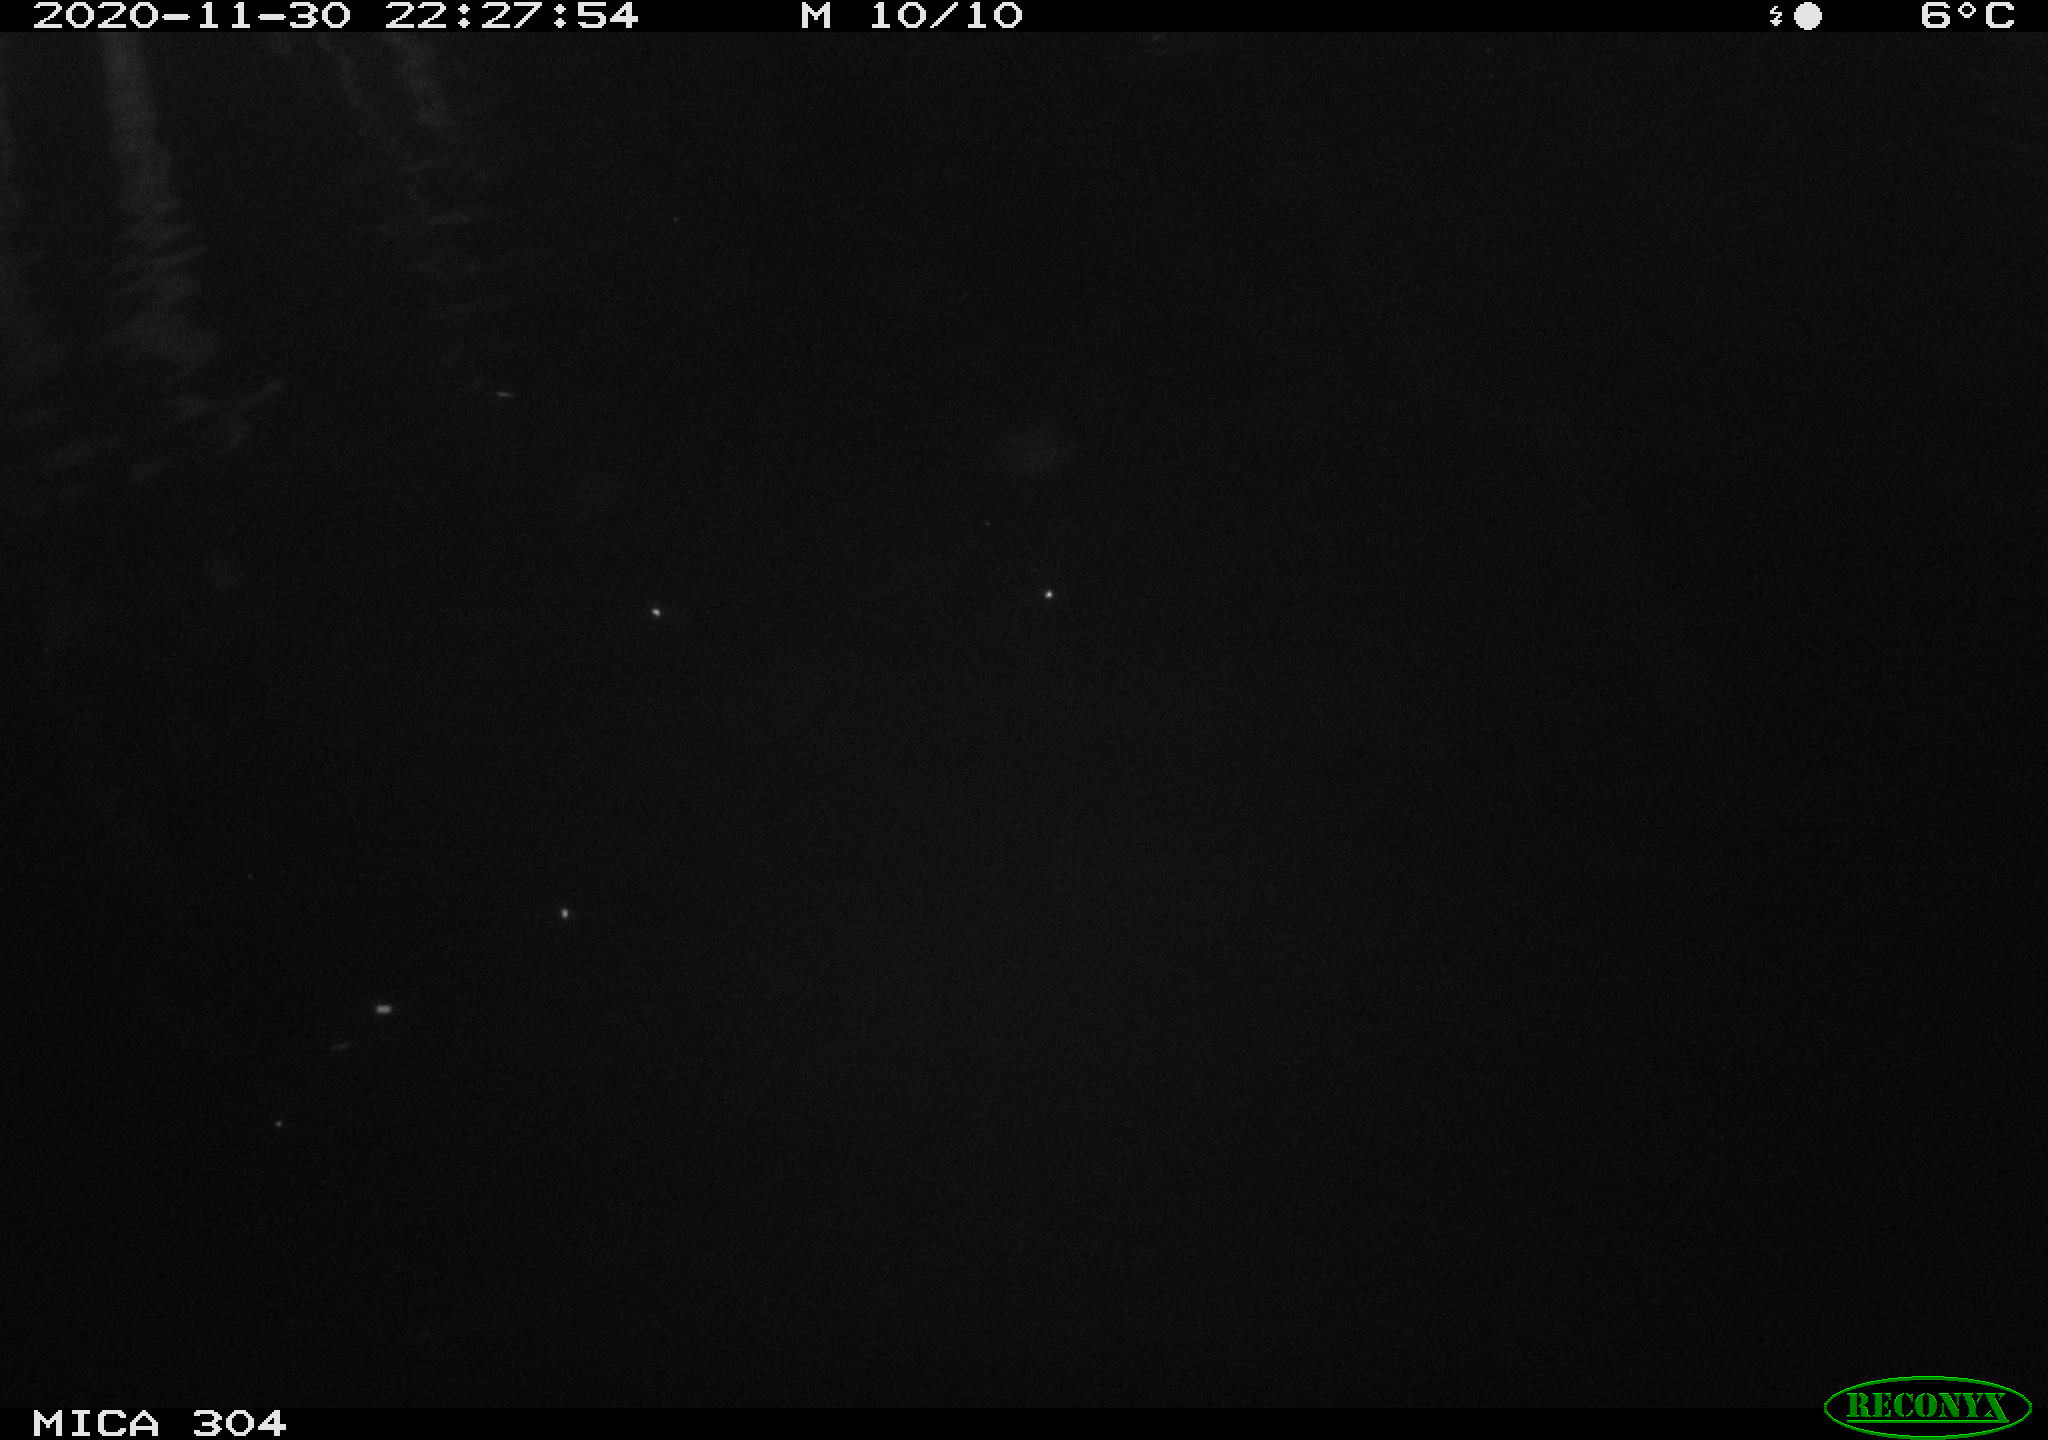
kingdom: Animalia
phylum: Chordata
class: Aves
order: Anseriformes
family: Anatidae
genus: Anas
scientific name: Anas platyrhynchos
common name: Mallard
